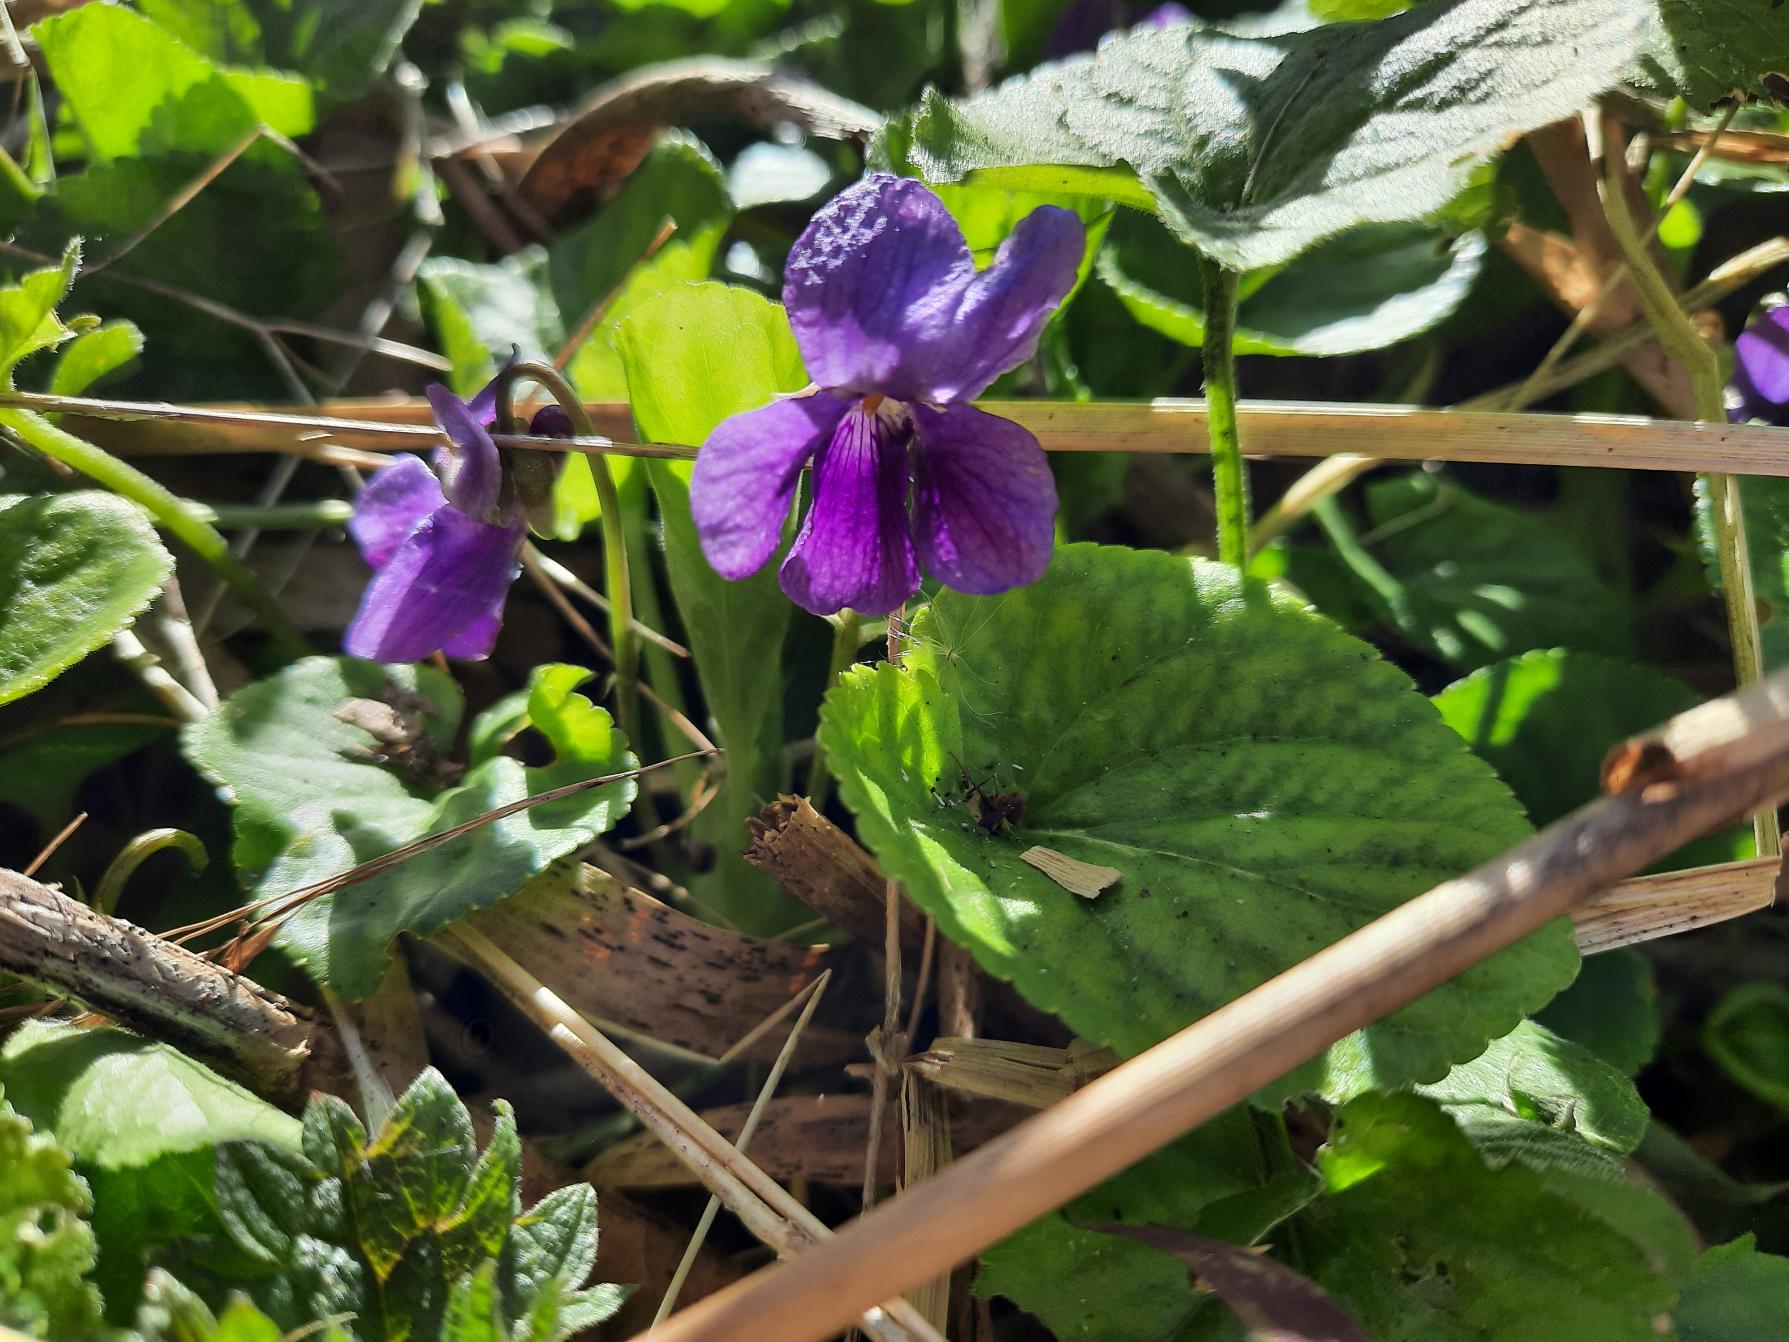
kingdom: Plantae
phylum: Tracheophyta
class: Magnoliopsida
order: Malpighiales
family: Violaceae
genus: Viola
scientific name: Viola odorata
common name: Marts-viol
